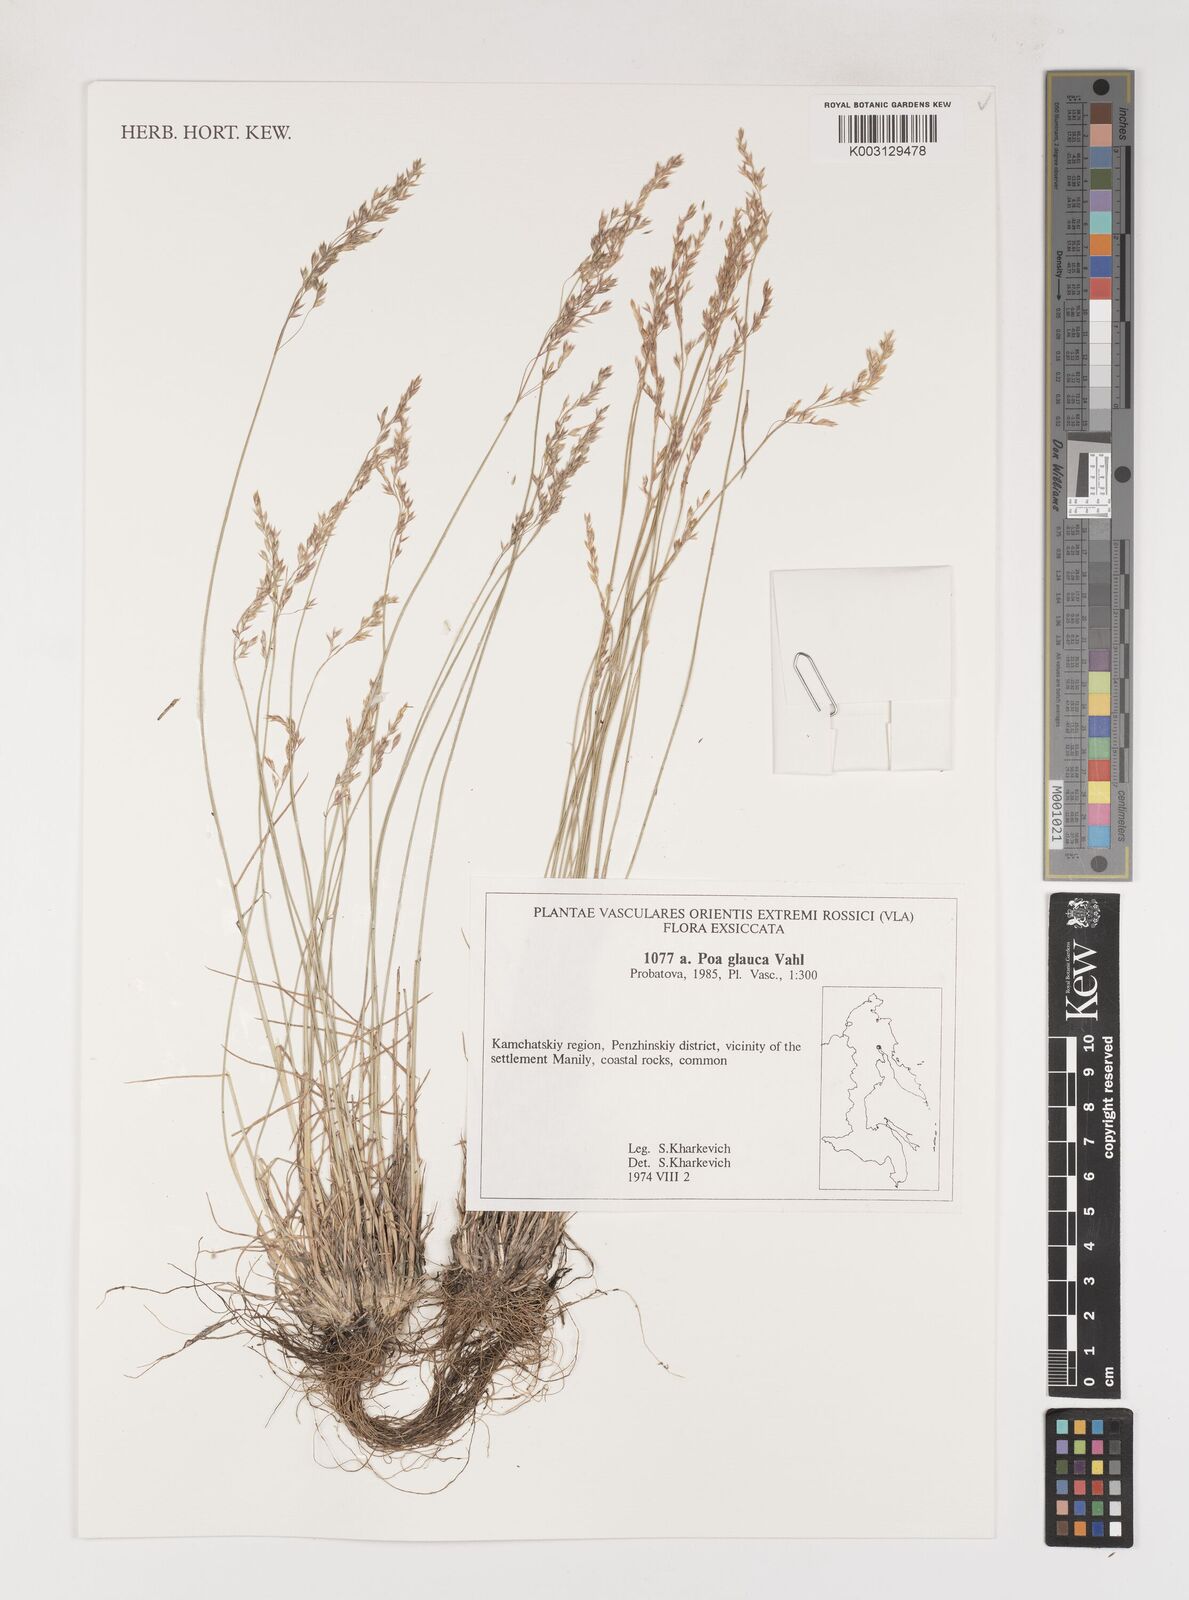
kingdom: Plantae
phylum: Tracheophyta
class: Liliopsida
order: Poales
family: Poaceae
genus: Poa
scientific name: Poa glauca
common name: Glaucous bluegrass
